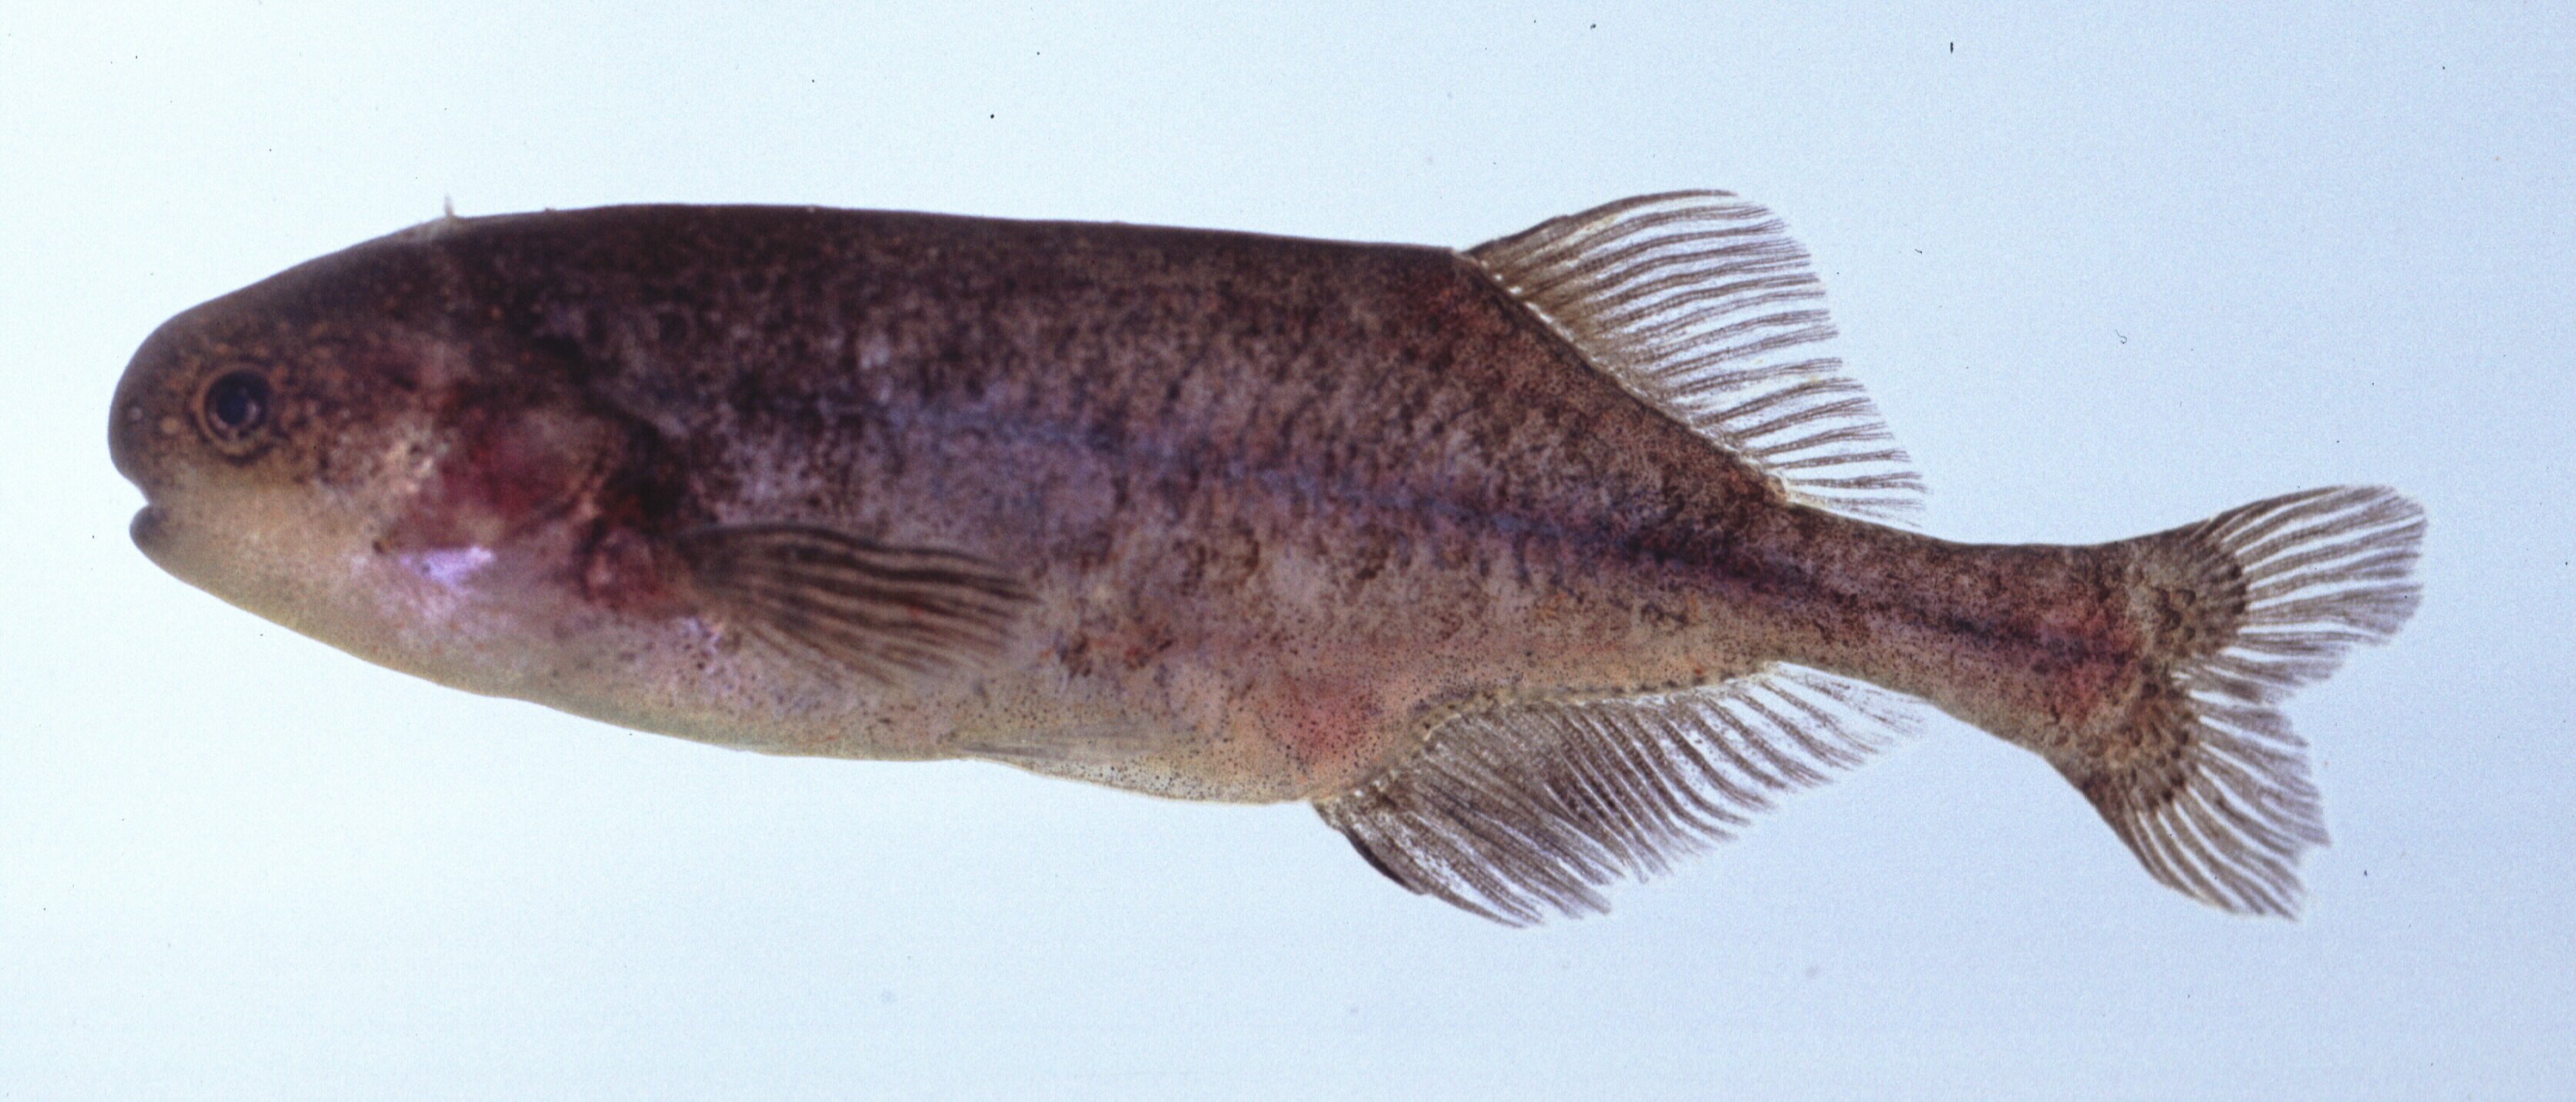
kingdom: Animalia
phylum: Chordata
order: Osteoglossiformes
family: Mormyridae
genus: Pollimyrus
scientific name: Pollimyrus castelnaui
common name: Dwarf stonebasher
